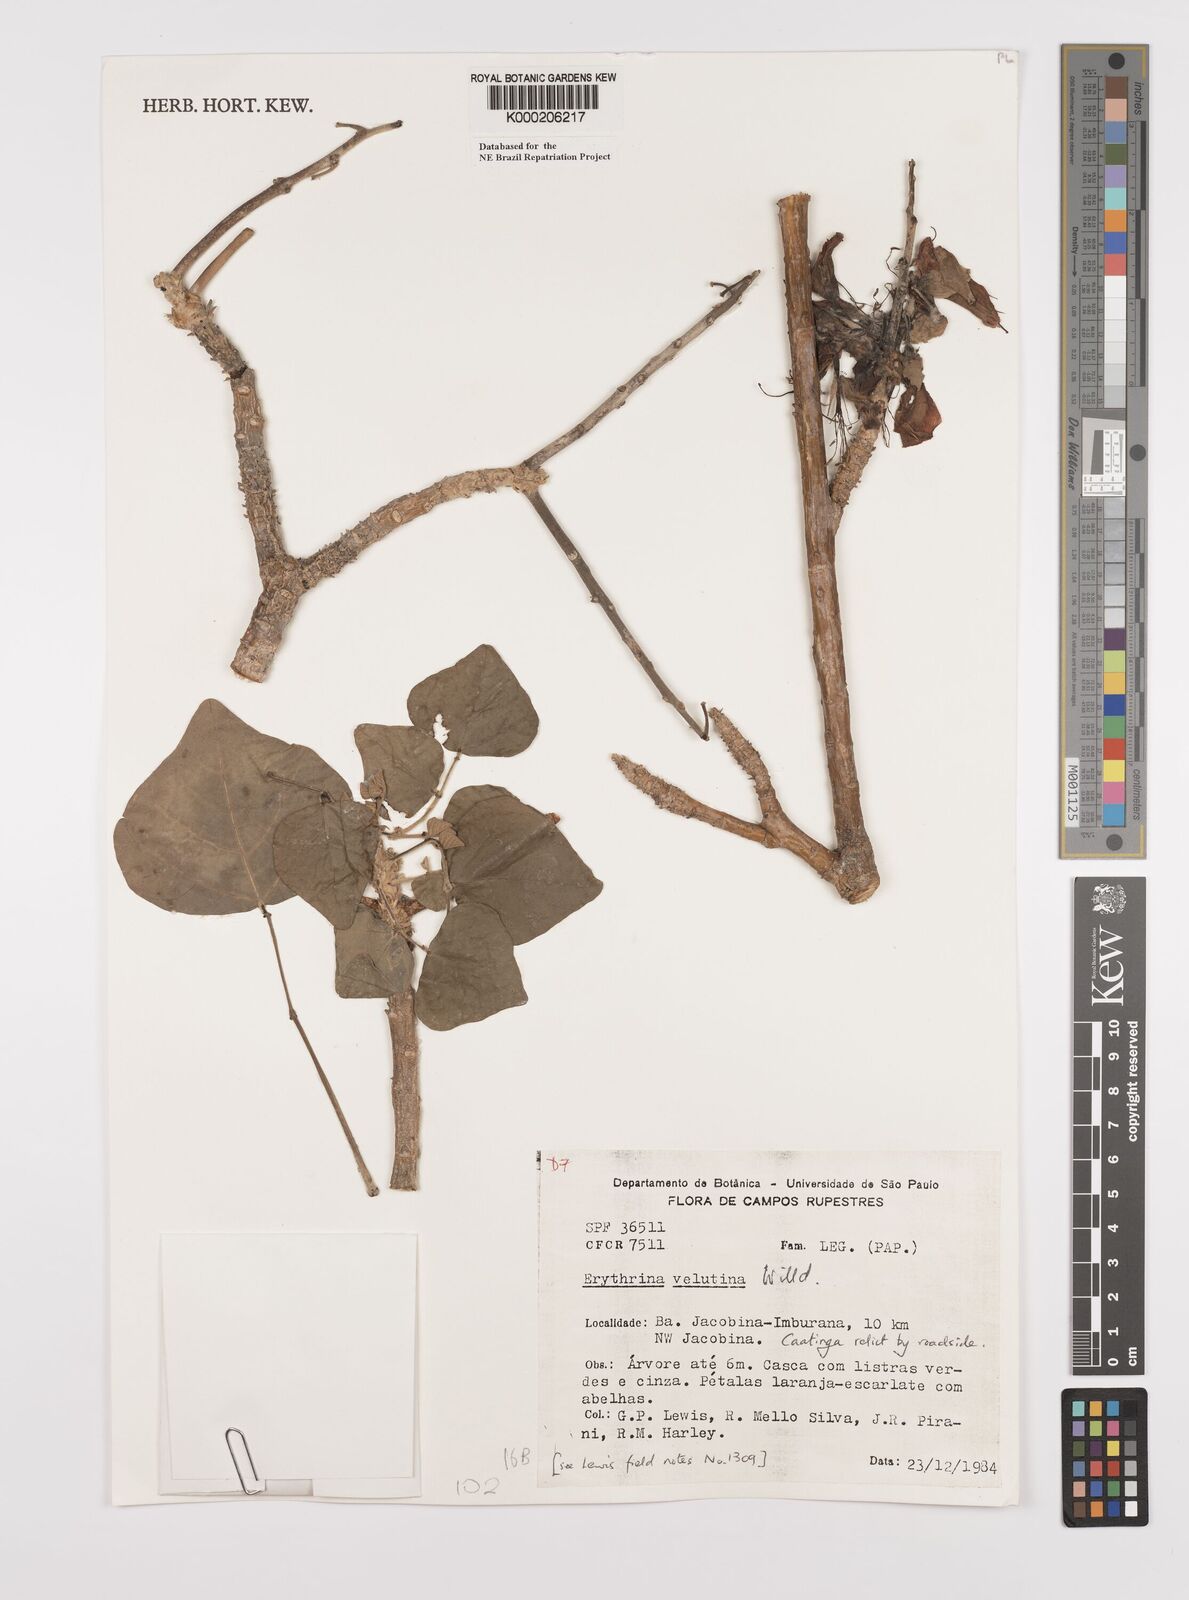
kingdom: Plantae
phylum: Tracheophyta
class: Magnoliopsida
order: Fabales
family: Fabaceae
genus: Erythrina
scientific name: Erythrina velutina
